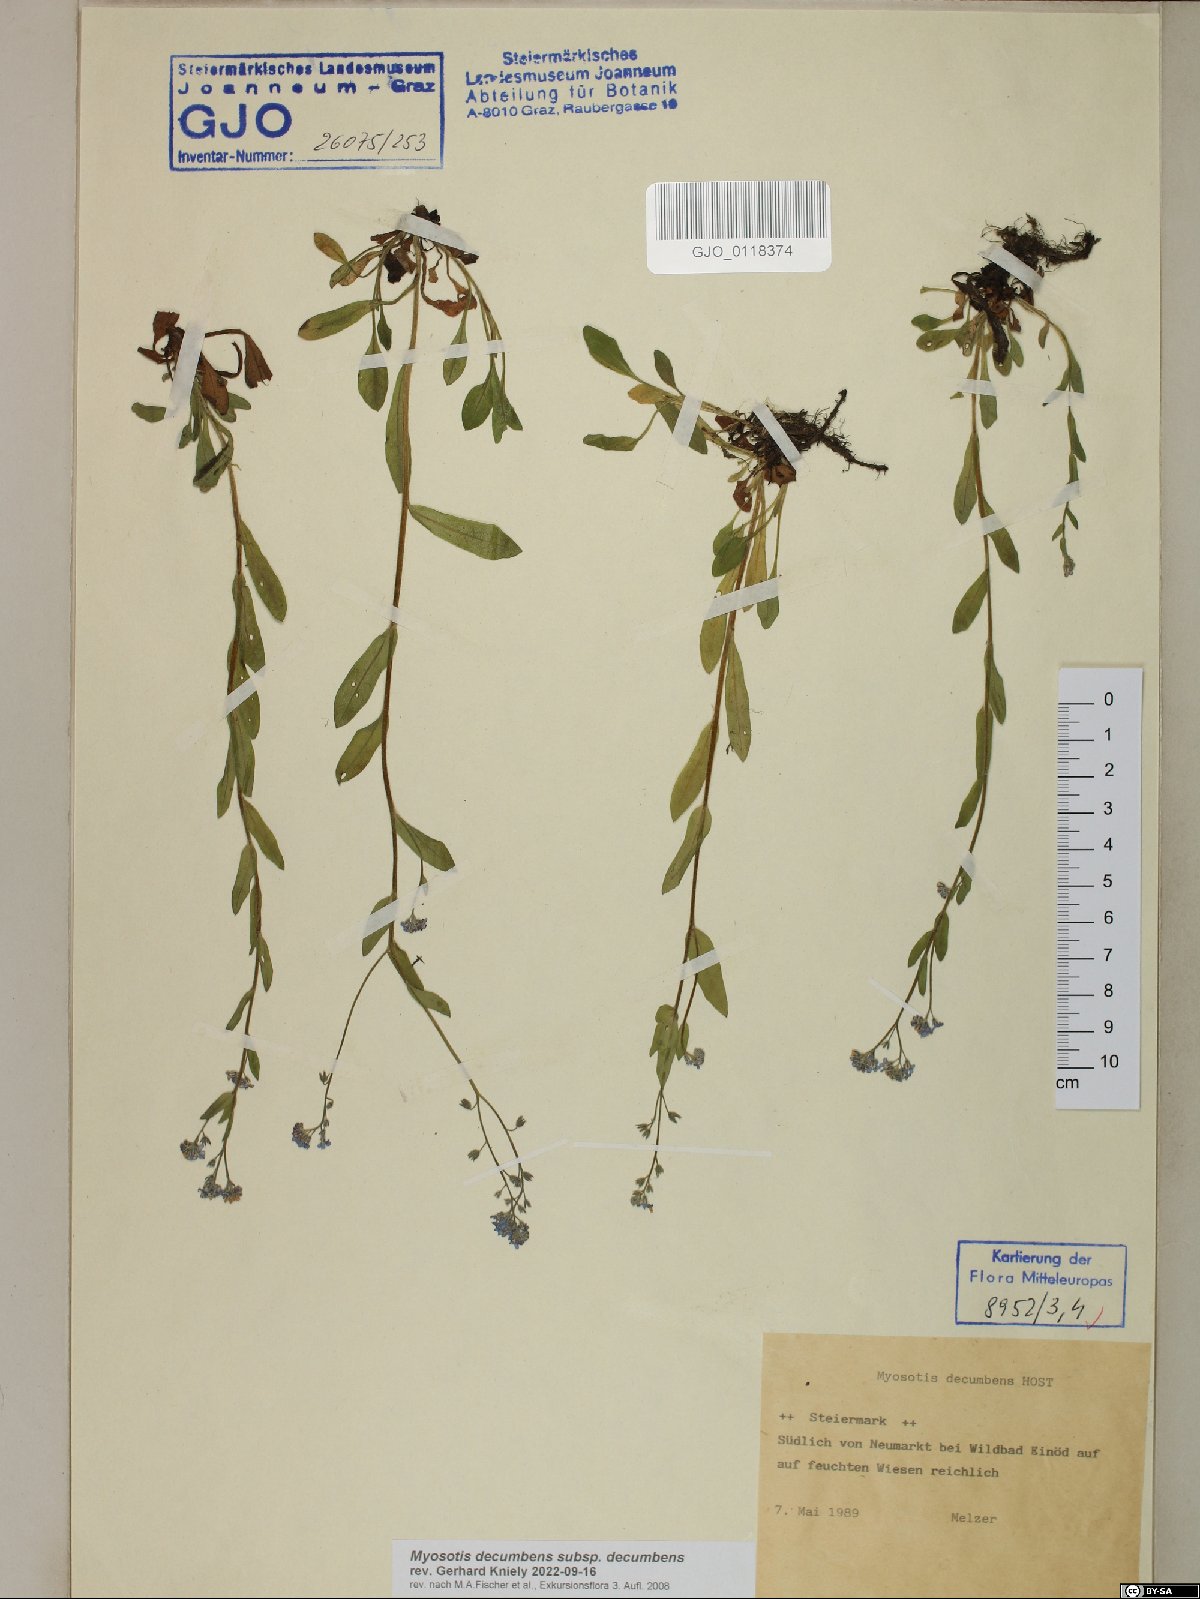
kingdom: Plantae
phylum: Tracheophyta
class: Magnoliopsida
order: Boraginales
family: Boraginaceae
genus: Myosotis
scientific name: Myosotis decumbens
